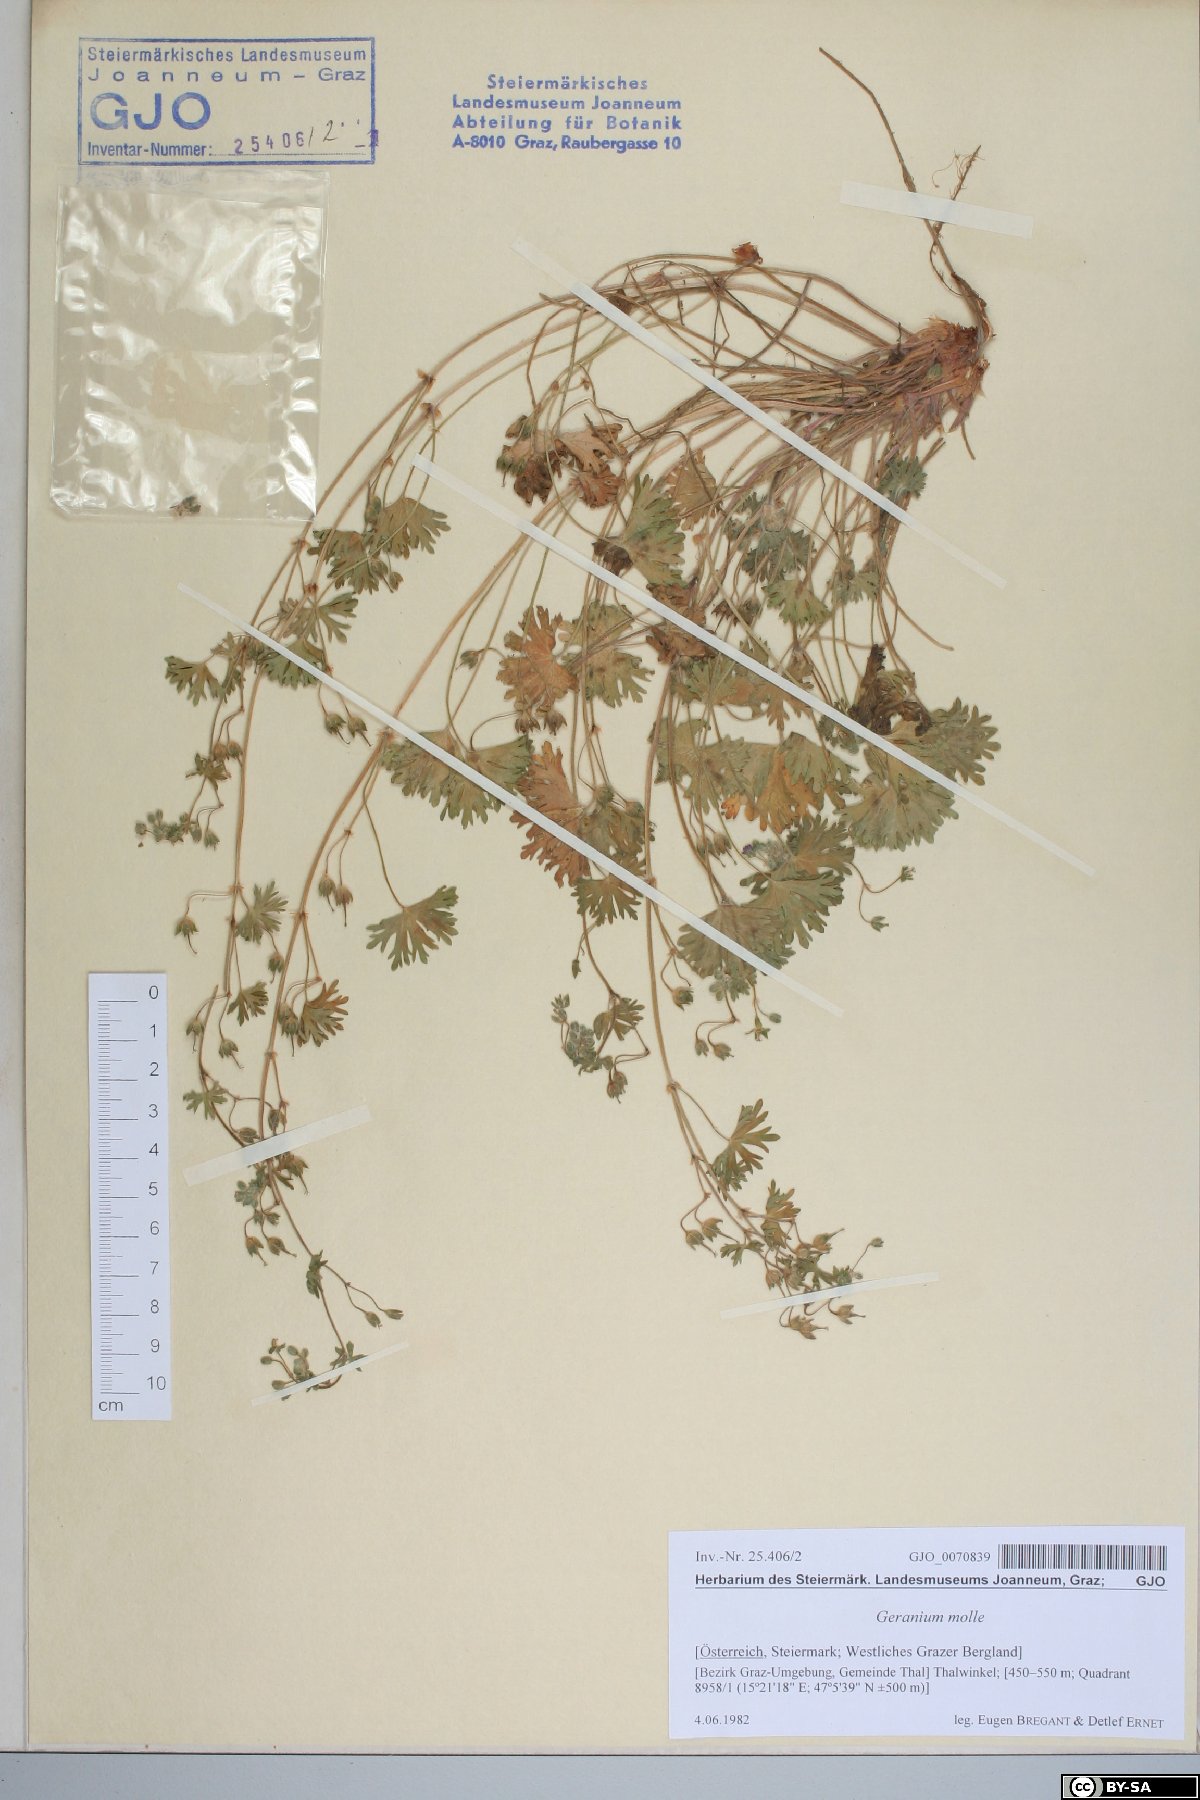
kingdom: Plantae
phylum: Tracheophyta
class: Magnoliopsida
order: Geraniales
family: Geraniaceae
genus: Geranium
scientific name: Geranium molle
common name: Dove's-foot crane's-bill
